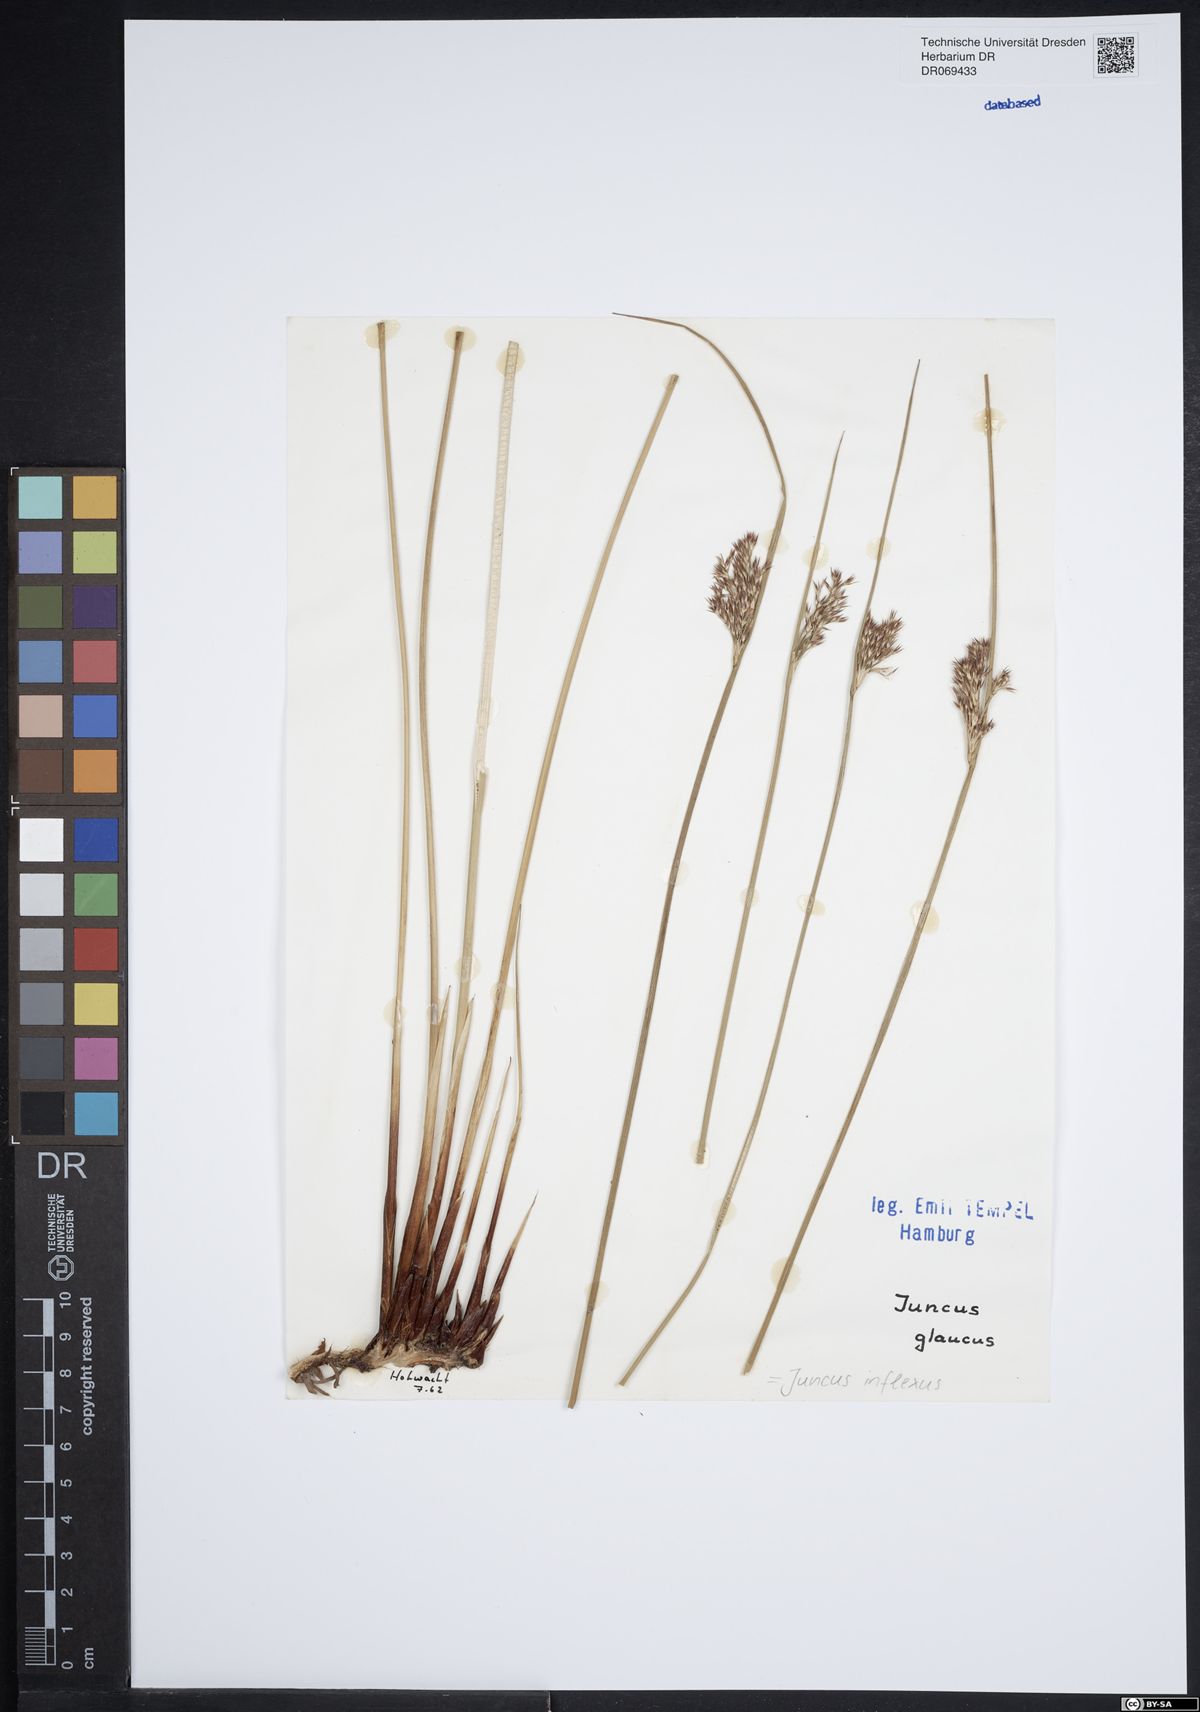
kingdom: Plantae
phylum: Tracheophyta
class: Liliopsida
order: Poales
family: Juncaceae
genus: Juncus
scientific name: Juncus inflexus
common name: Hard rush
